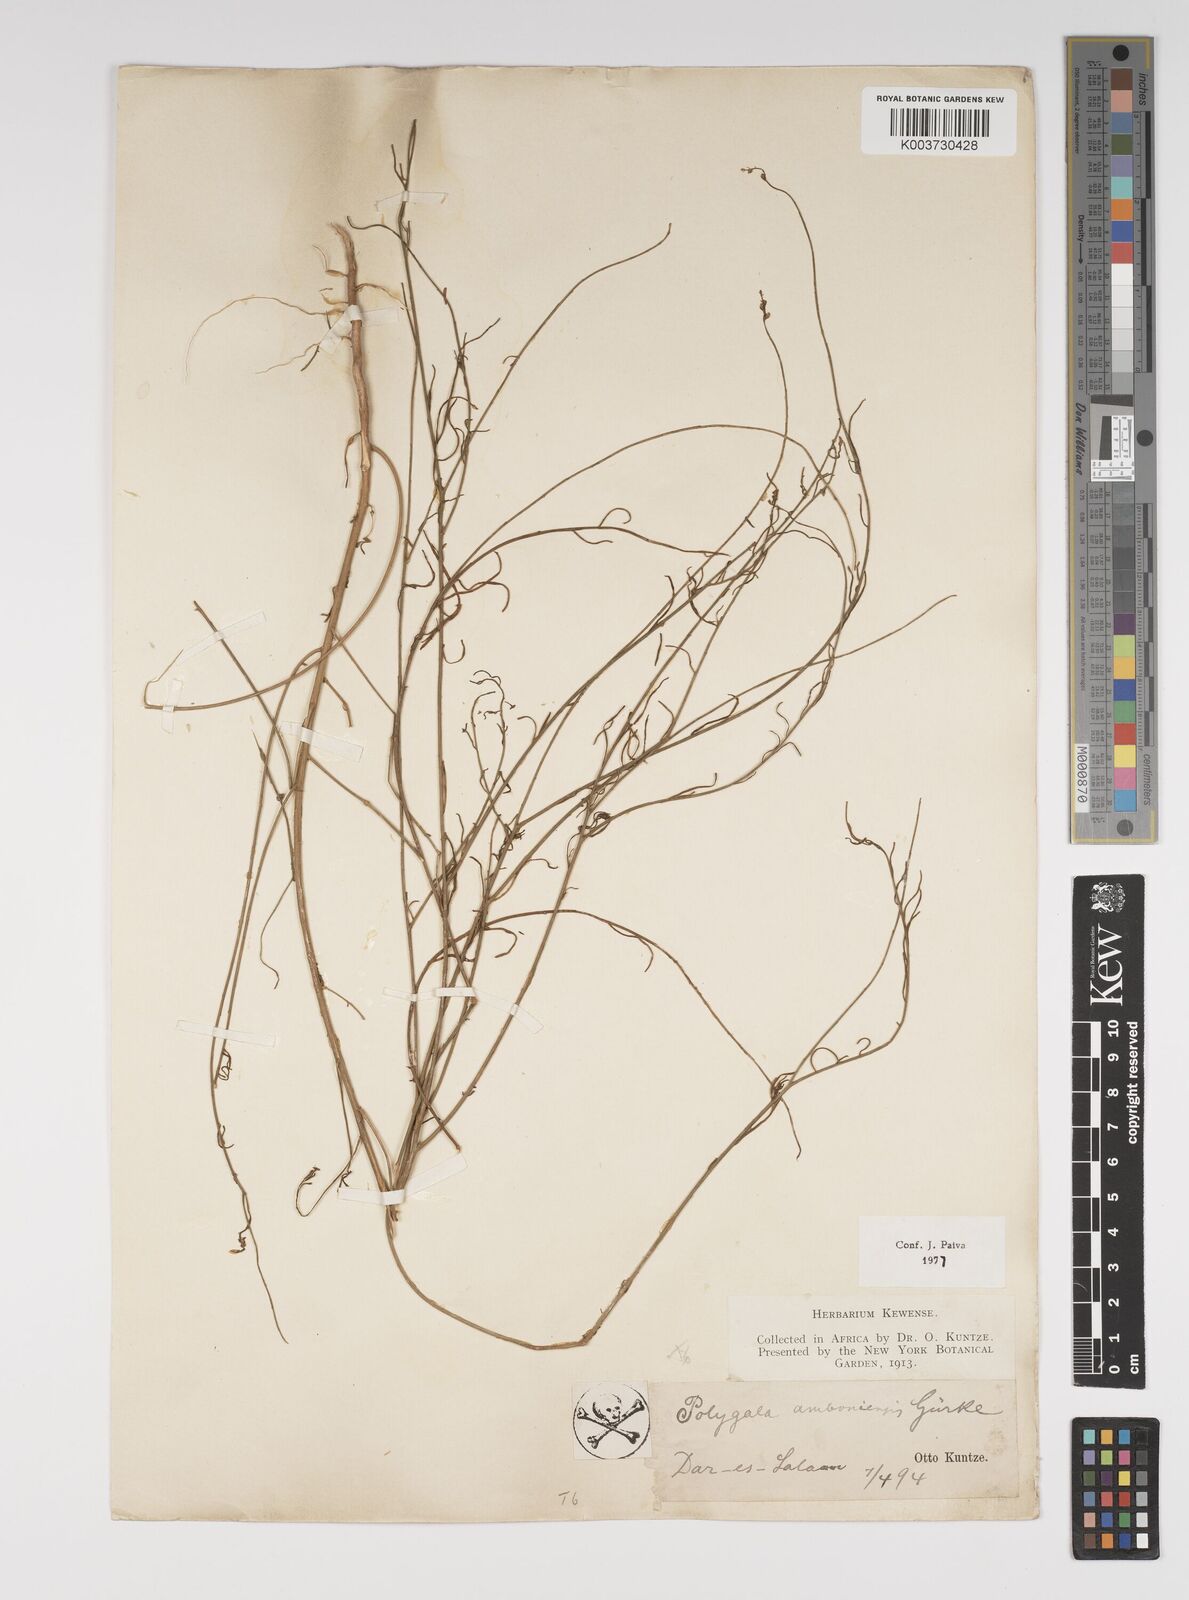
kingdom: Plantae
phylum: Tracheophyta
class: Magnoliopsida
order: Fabales
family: Polygalaceae
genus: Polygala
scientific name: Polygala amboniensis
